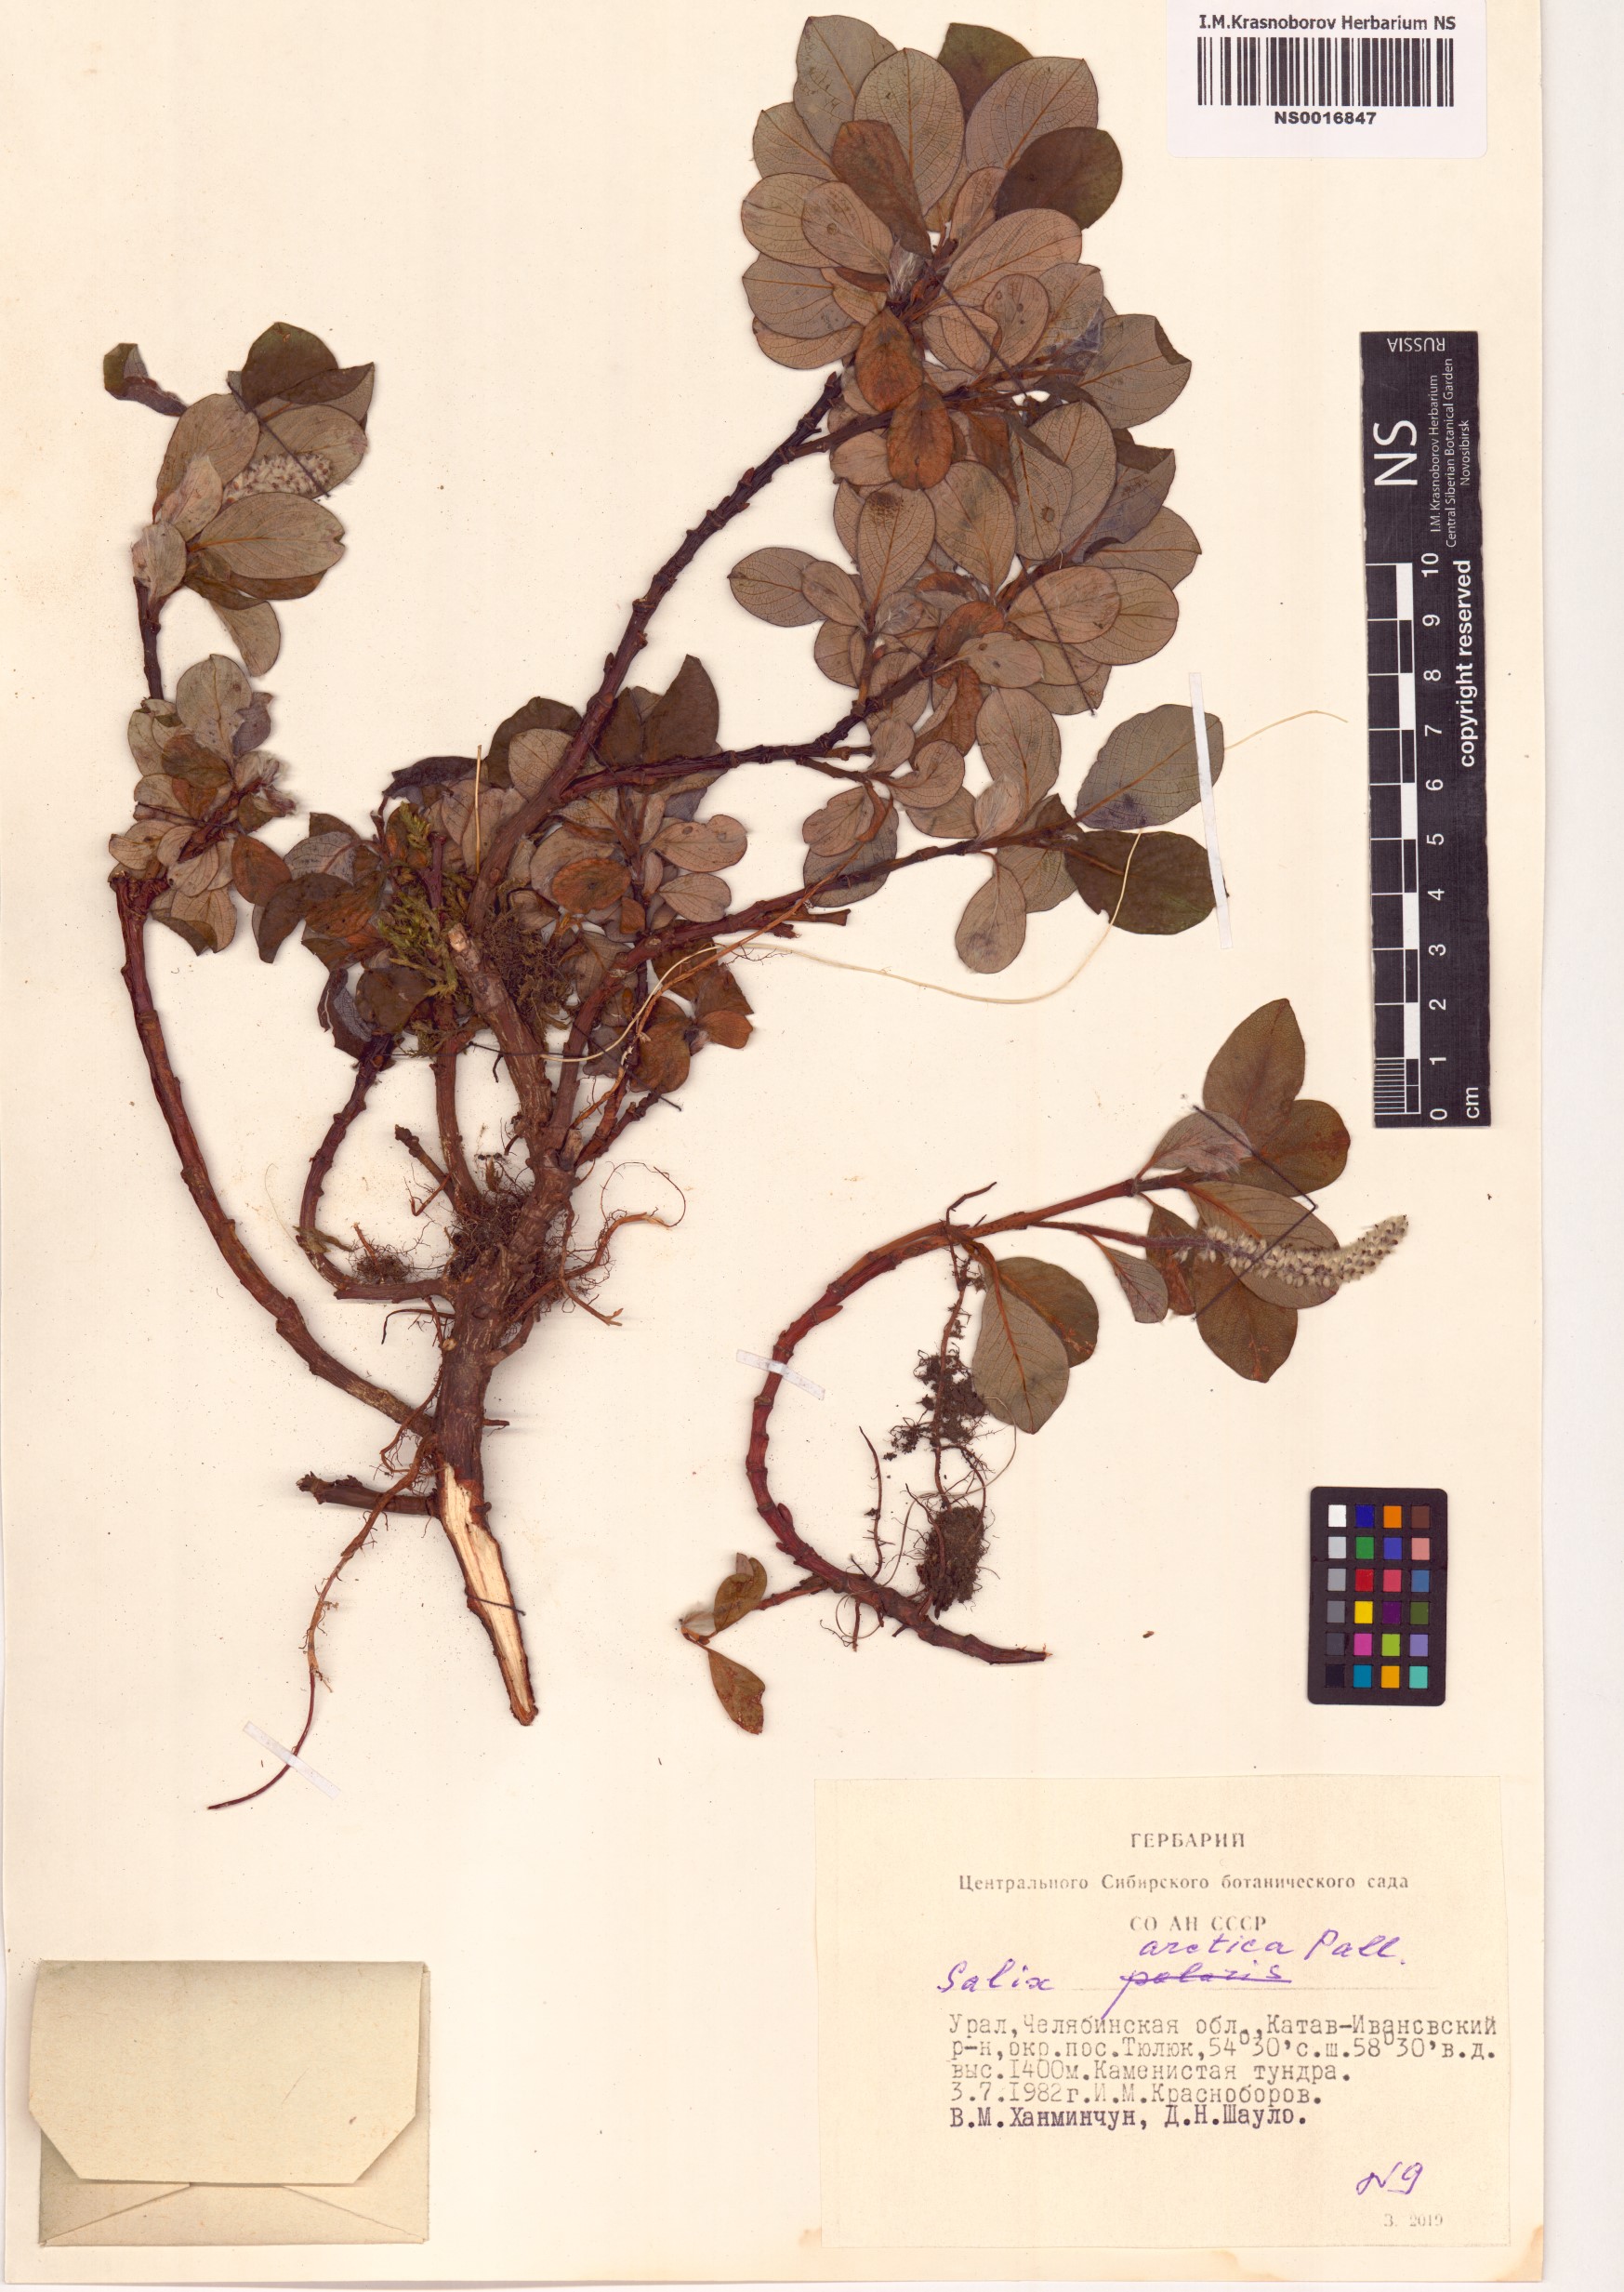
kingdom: Plantae
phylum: Tracheophyta
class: Magnoliopsida
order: Malpighiales
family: Salicaceae
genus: Salix
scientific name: Salix arctica
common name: Arctic willow
